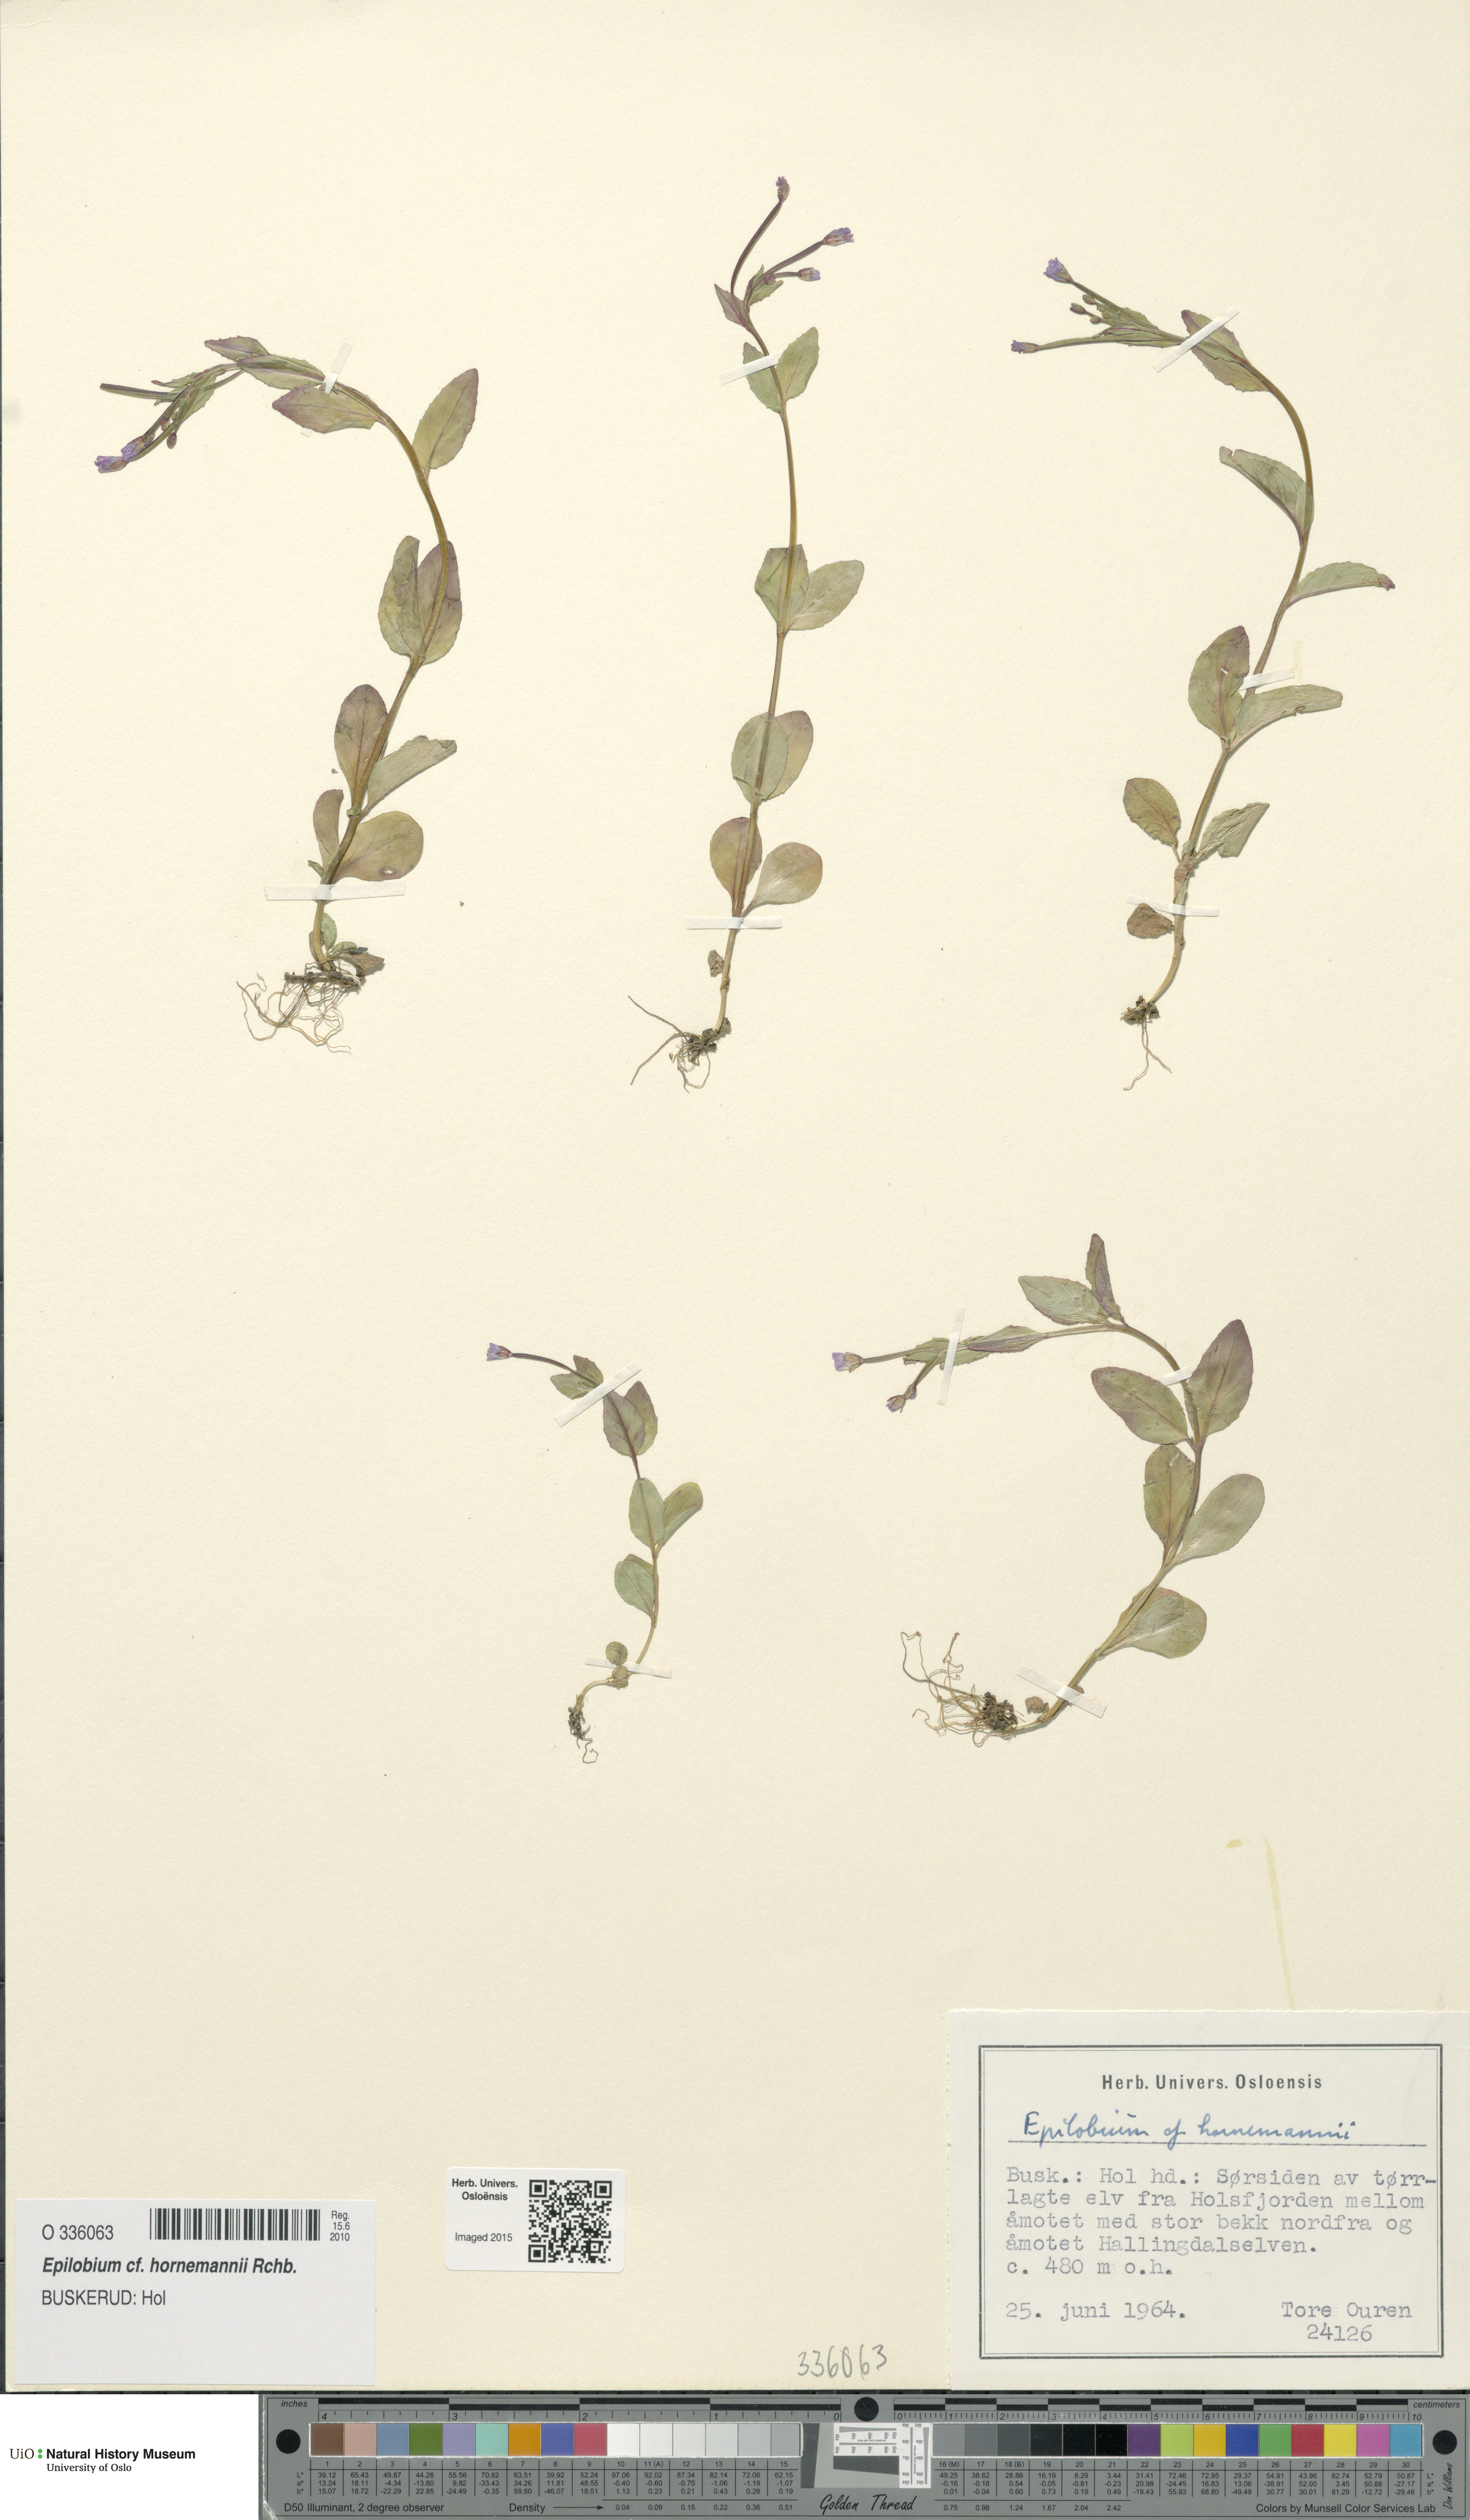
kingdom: Plantae
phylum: Tracheophyta
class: Magnoliopsida
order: Myrtales
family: Onagraceae
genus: Epilobium
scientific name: Epilobium hornemannii
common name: Hornemann's willowherb
